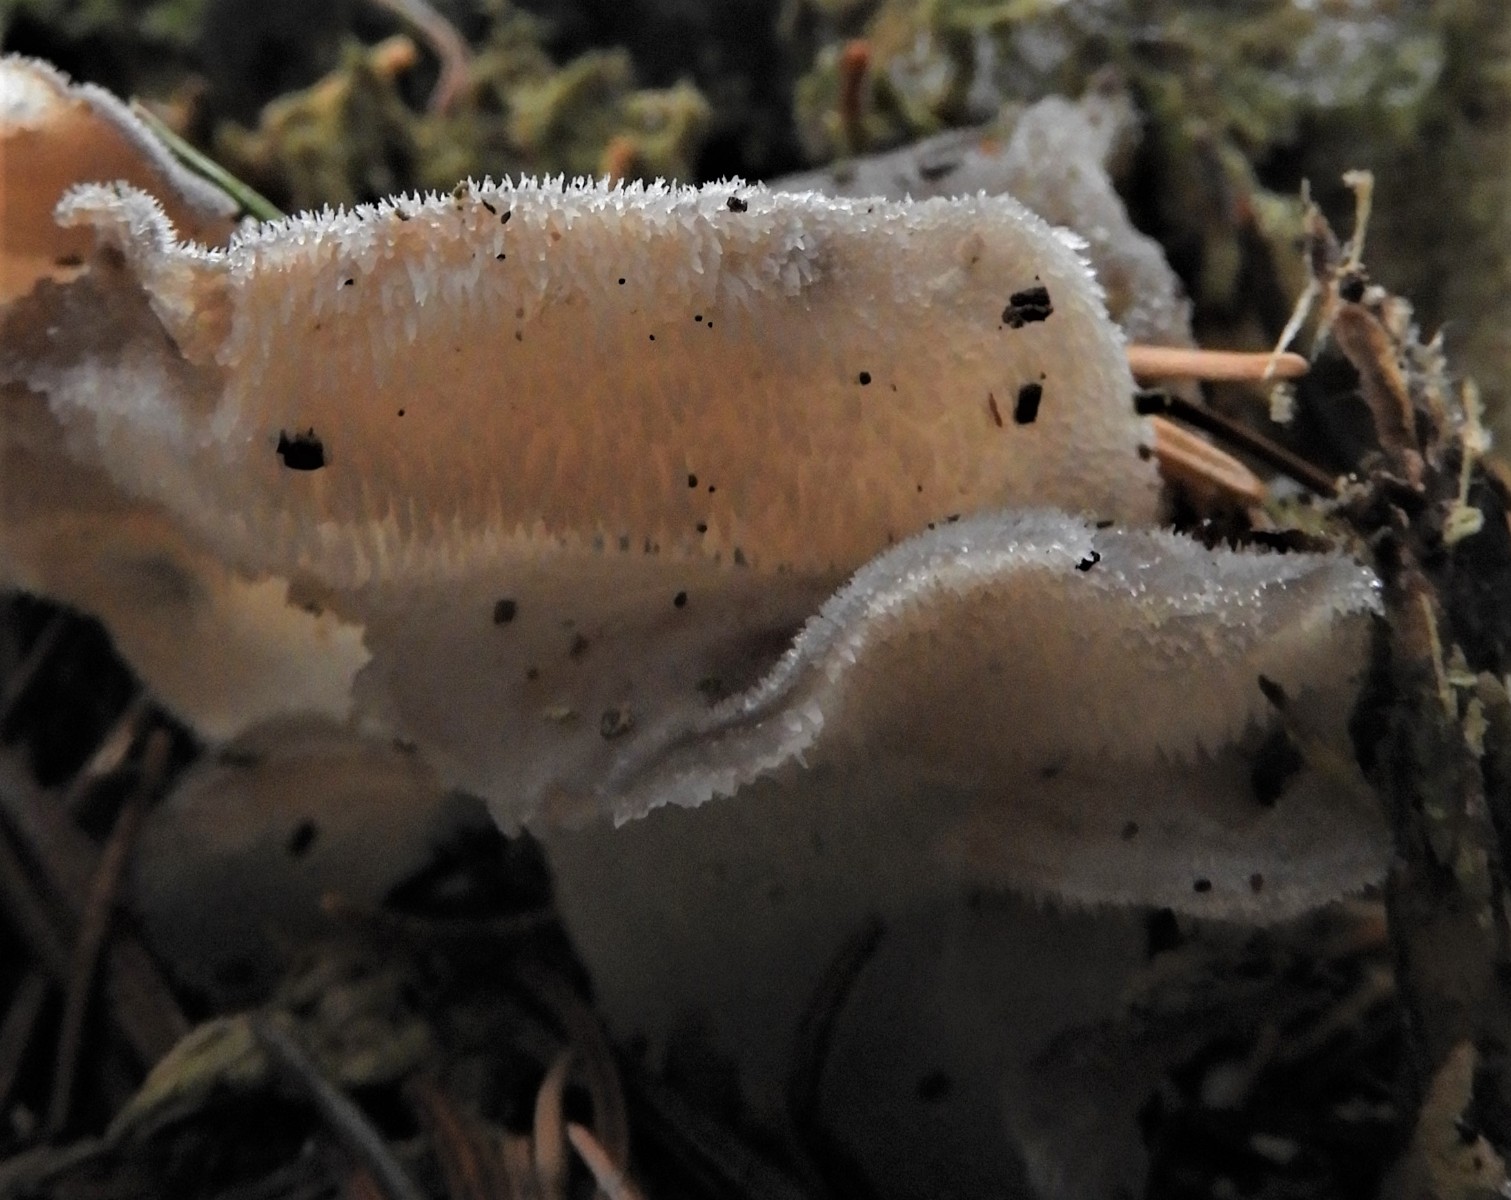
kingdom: Fungi
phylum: Basidiomycota
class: Agaricomycetes
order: Auriculariales
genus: Pseudohydnum
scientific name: Pseudohydnum gelatinosum
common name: bævretand
